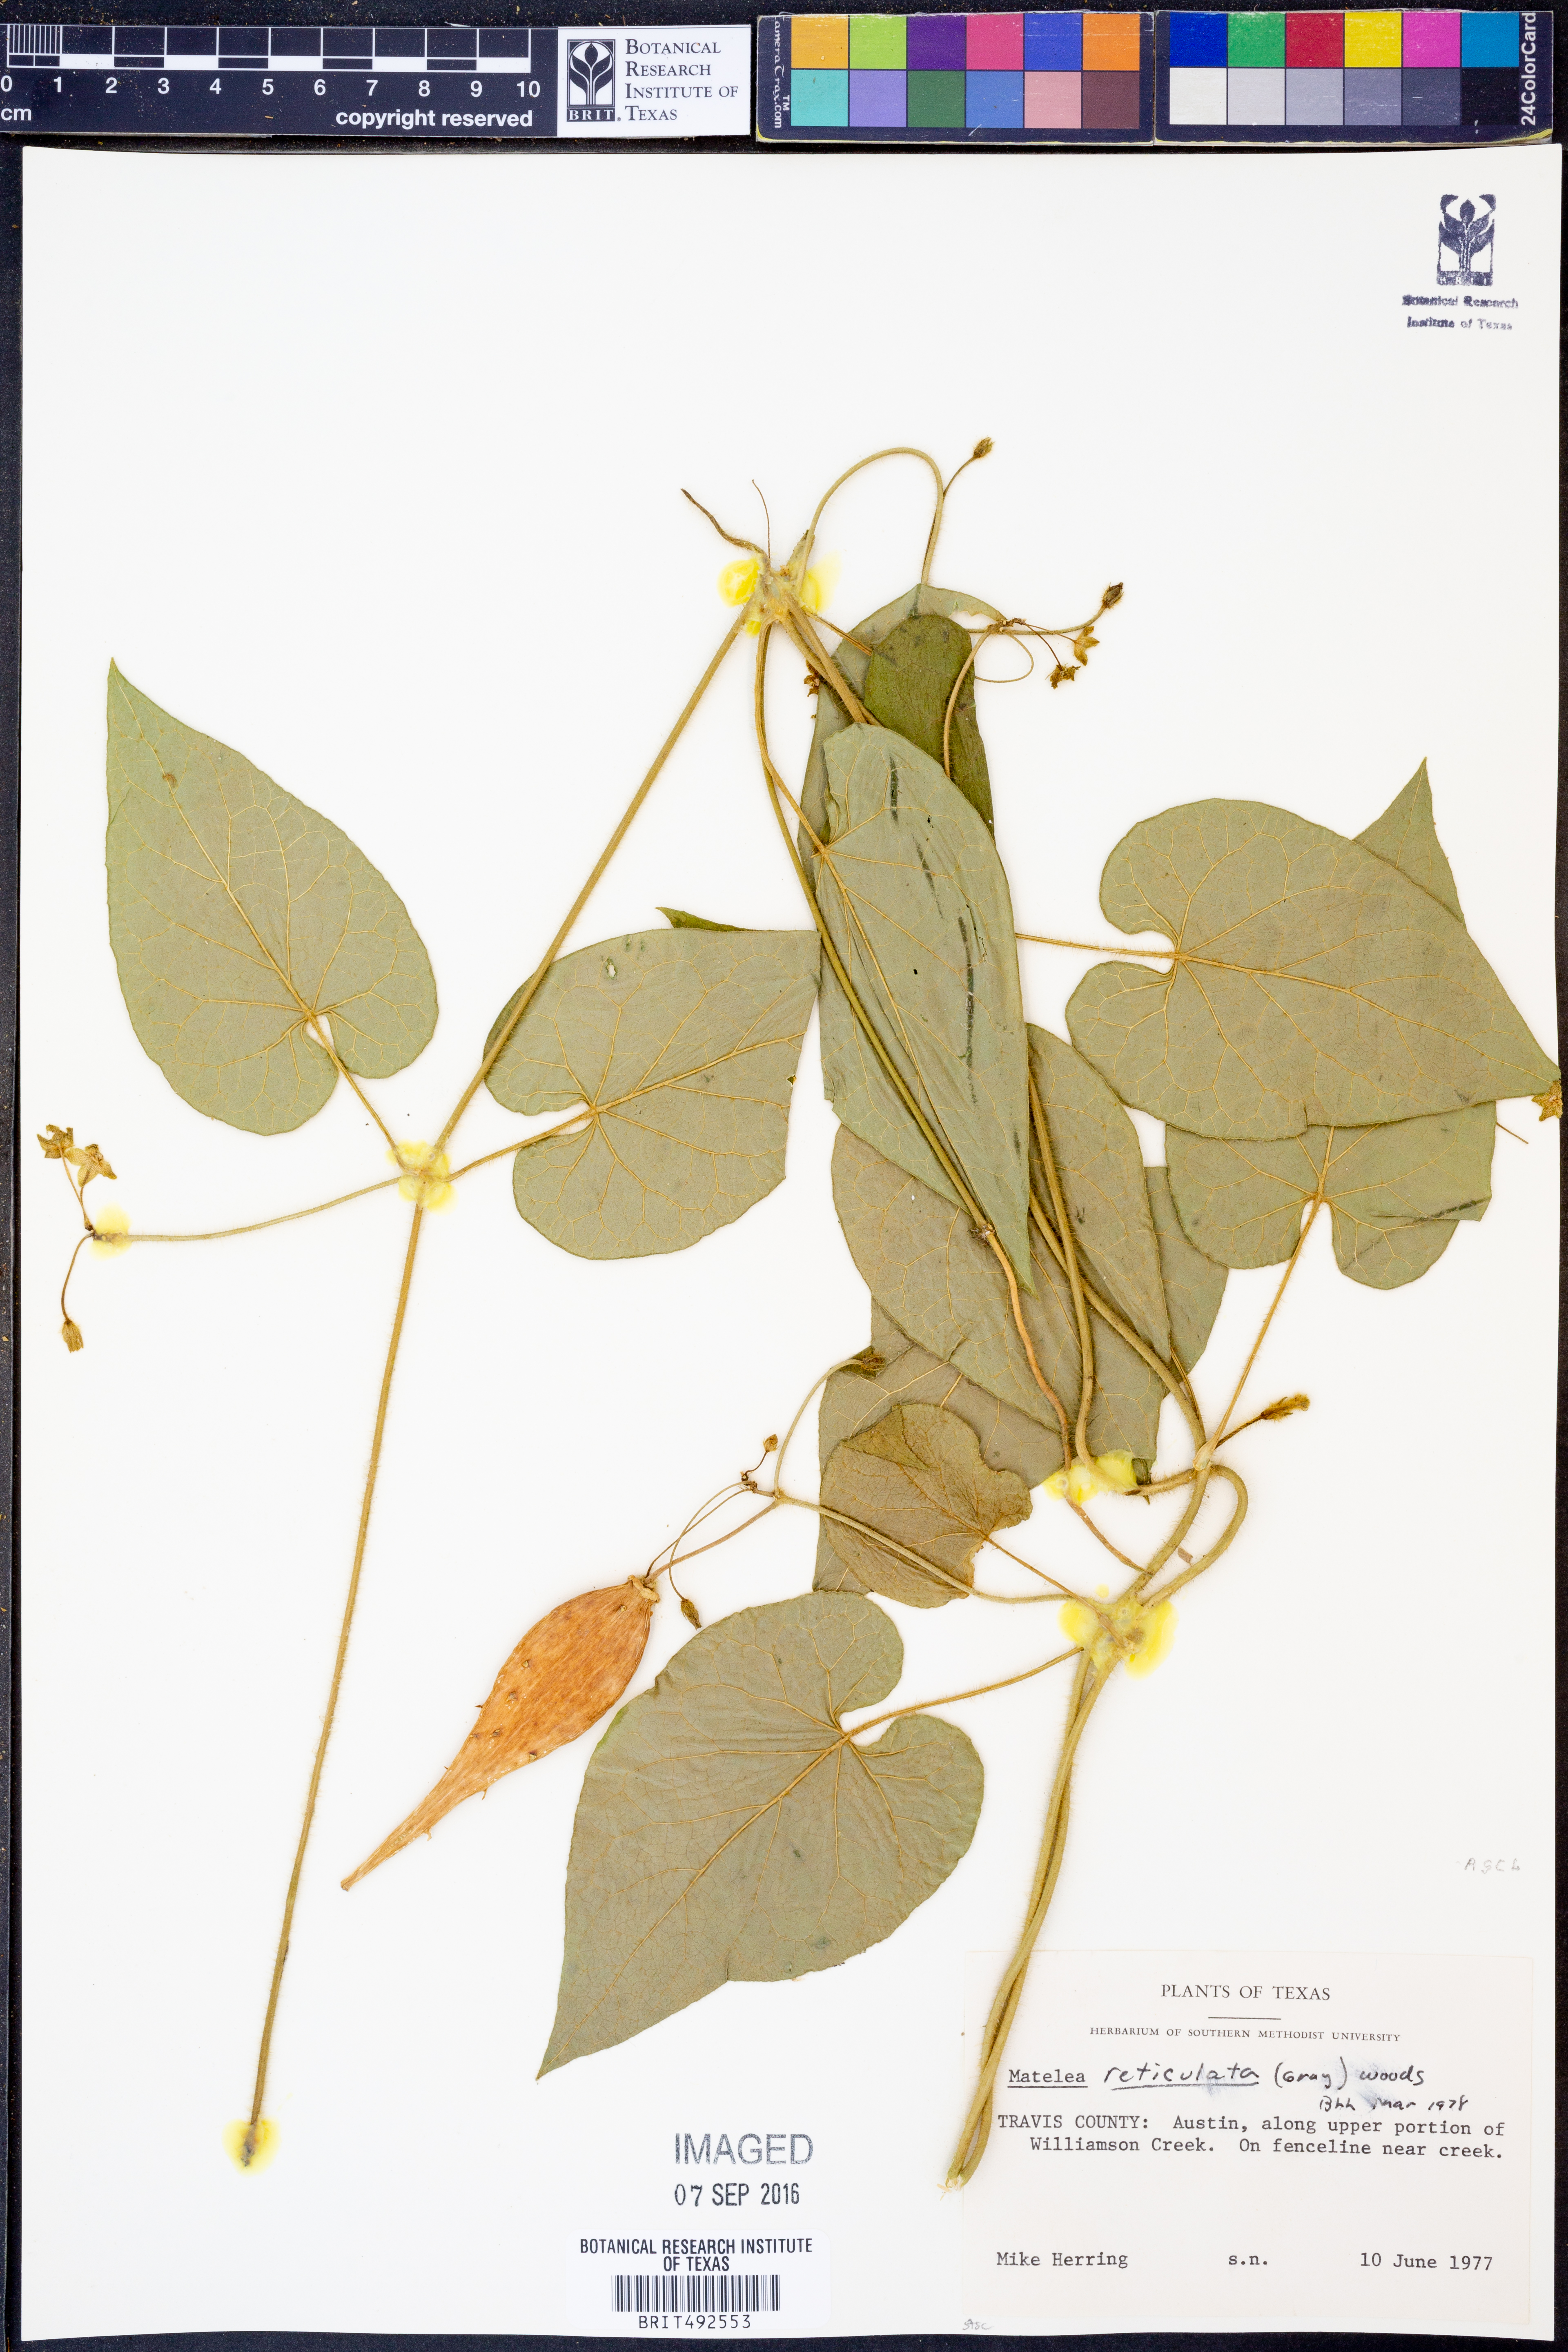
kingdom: Plantae
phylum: Tracheophyta
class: Magnoliopsida
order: Gentianales
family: Apocynaceae
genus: Dictyanthus
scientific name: Dictyanthus reticulatus
